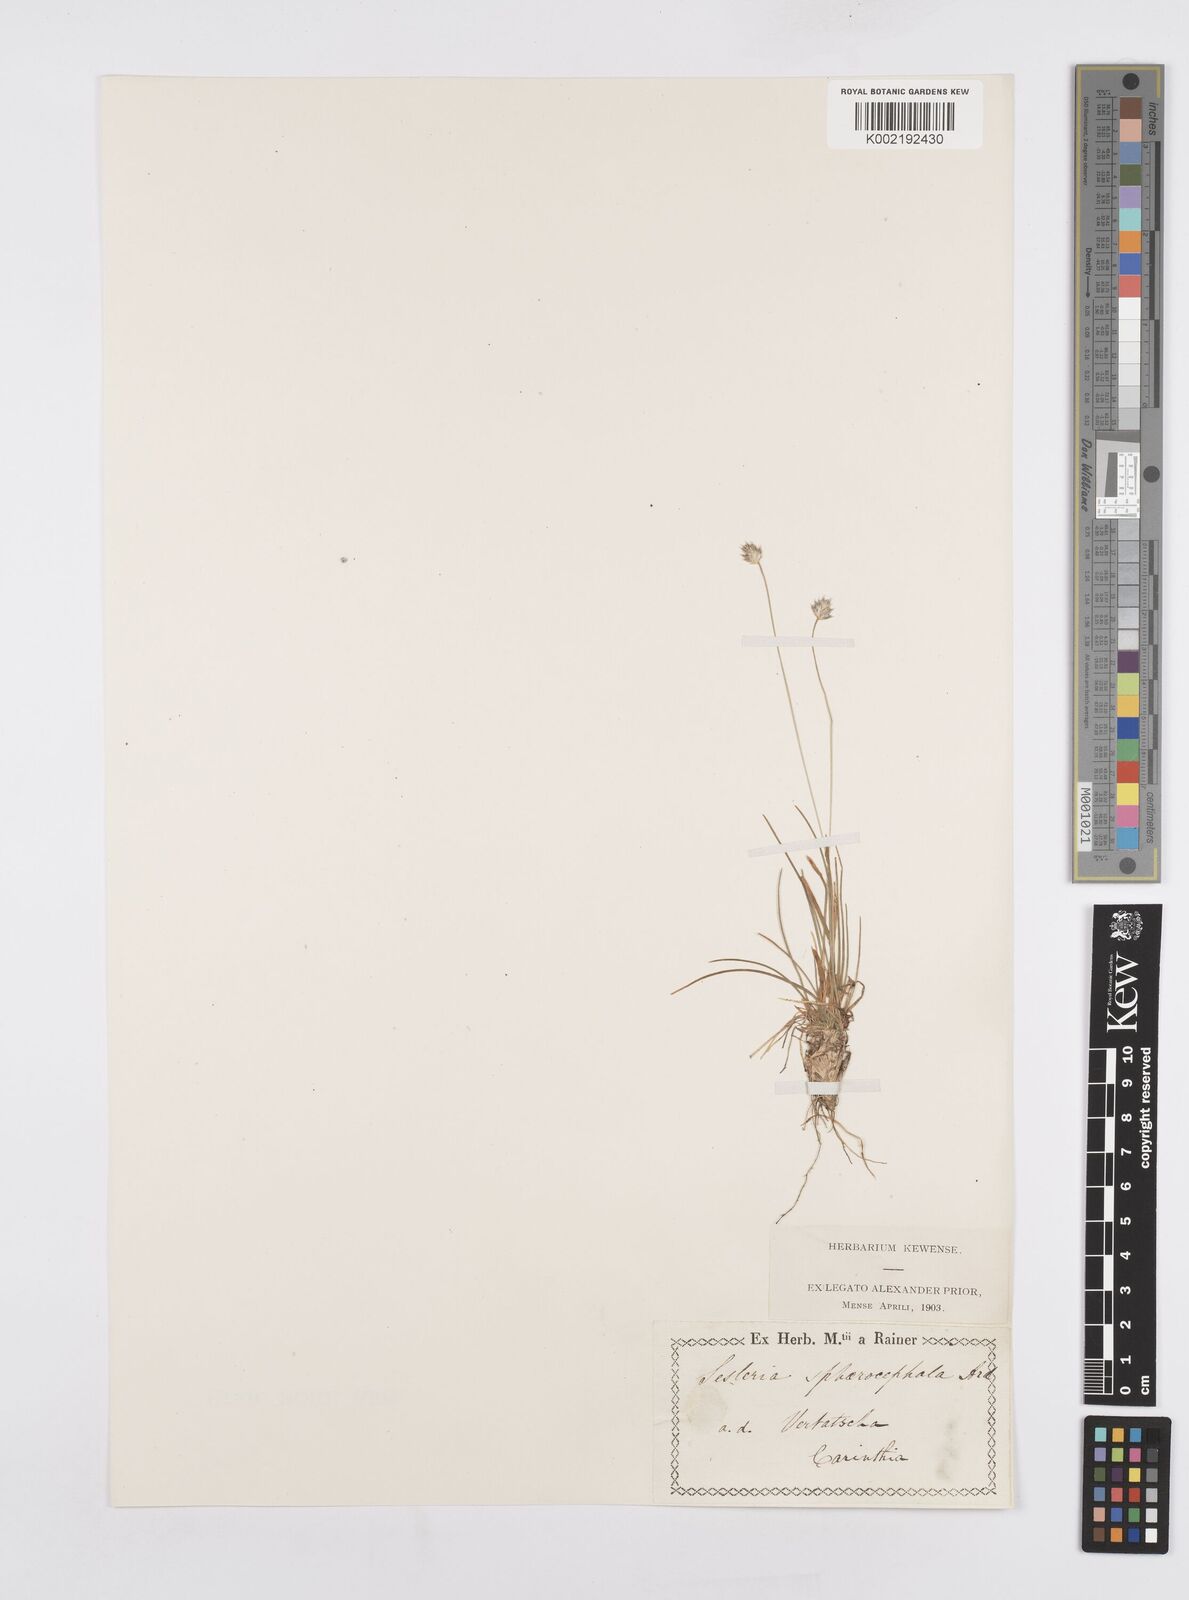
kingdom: Plantae
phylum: Tracheophyta
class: Liliopsida
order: Poales
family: Poaceae
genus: Sesleriella
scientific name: Sesleriella sphaerocephala
